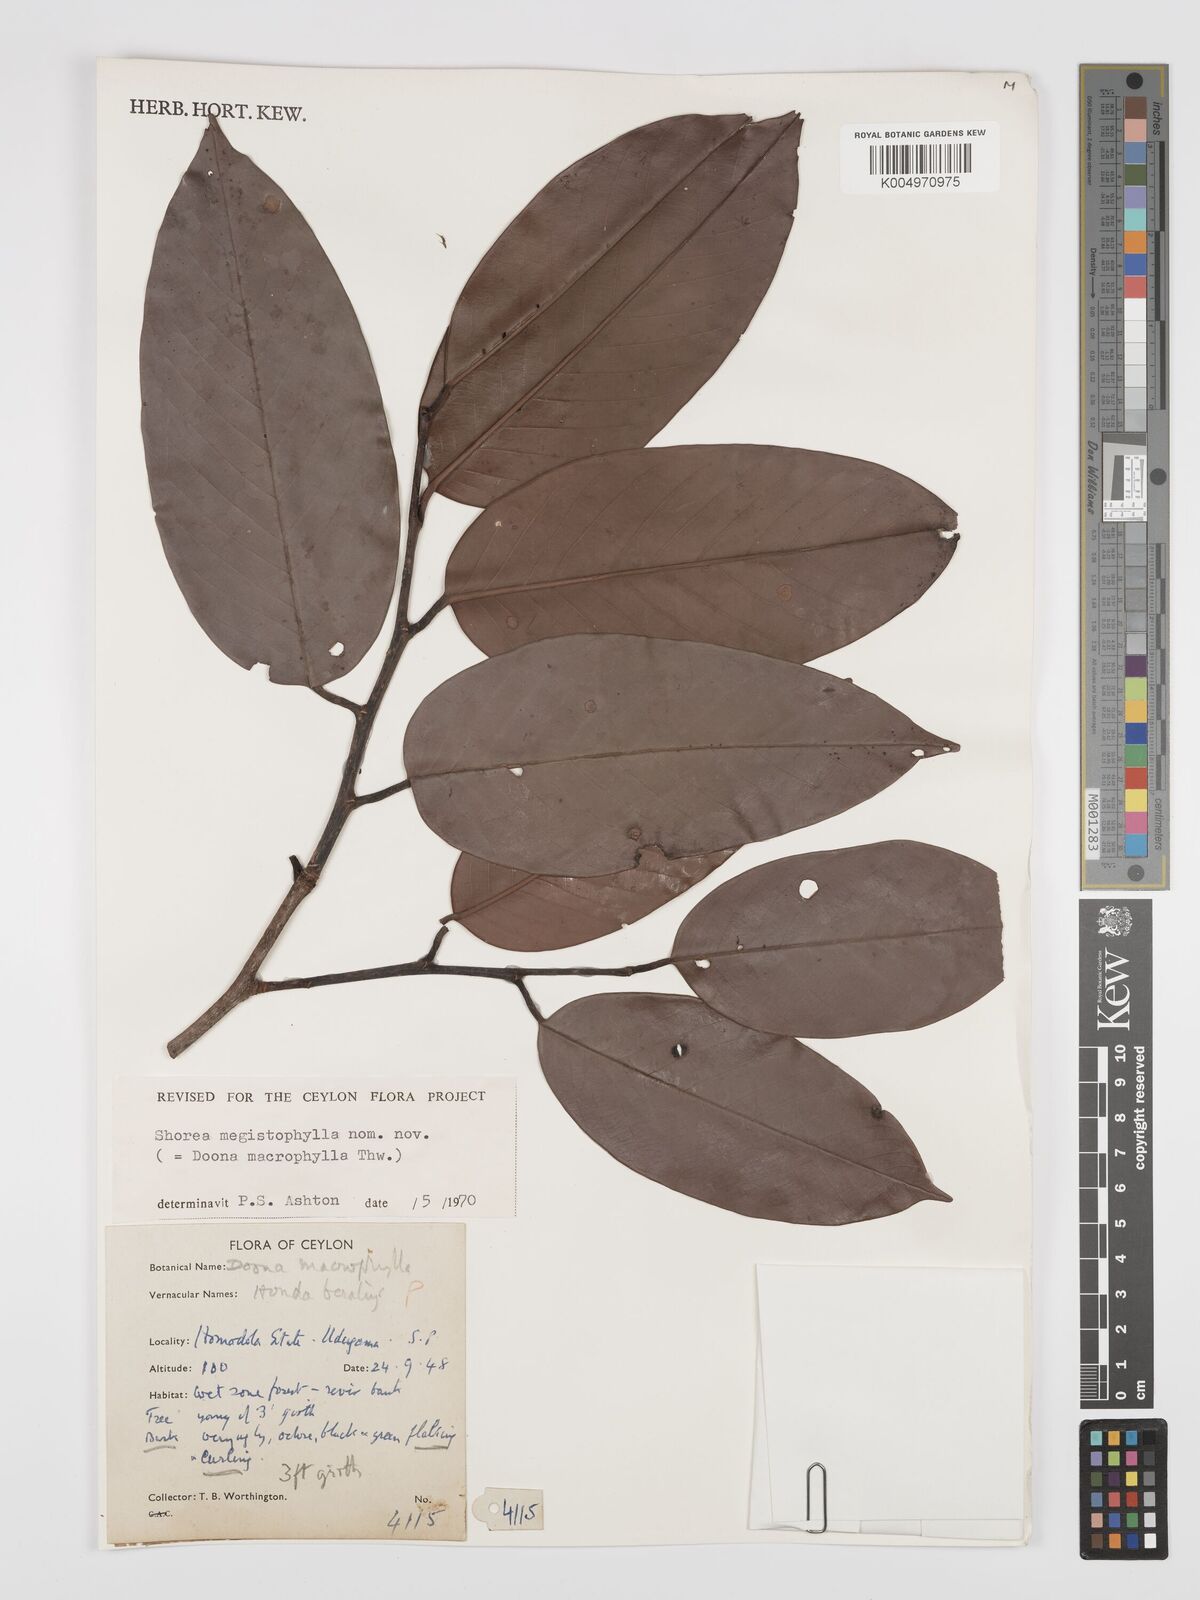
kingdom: Plantae
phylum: Tracheophyta
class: Magnoliopsida
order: Malvales
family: Dipterocarpaceae
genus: Doona
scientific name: Doona macrophylla
